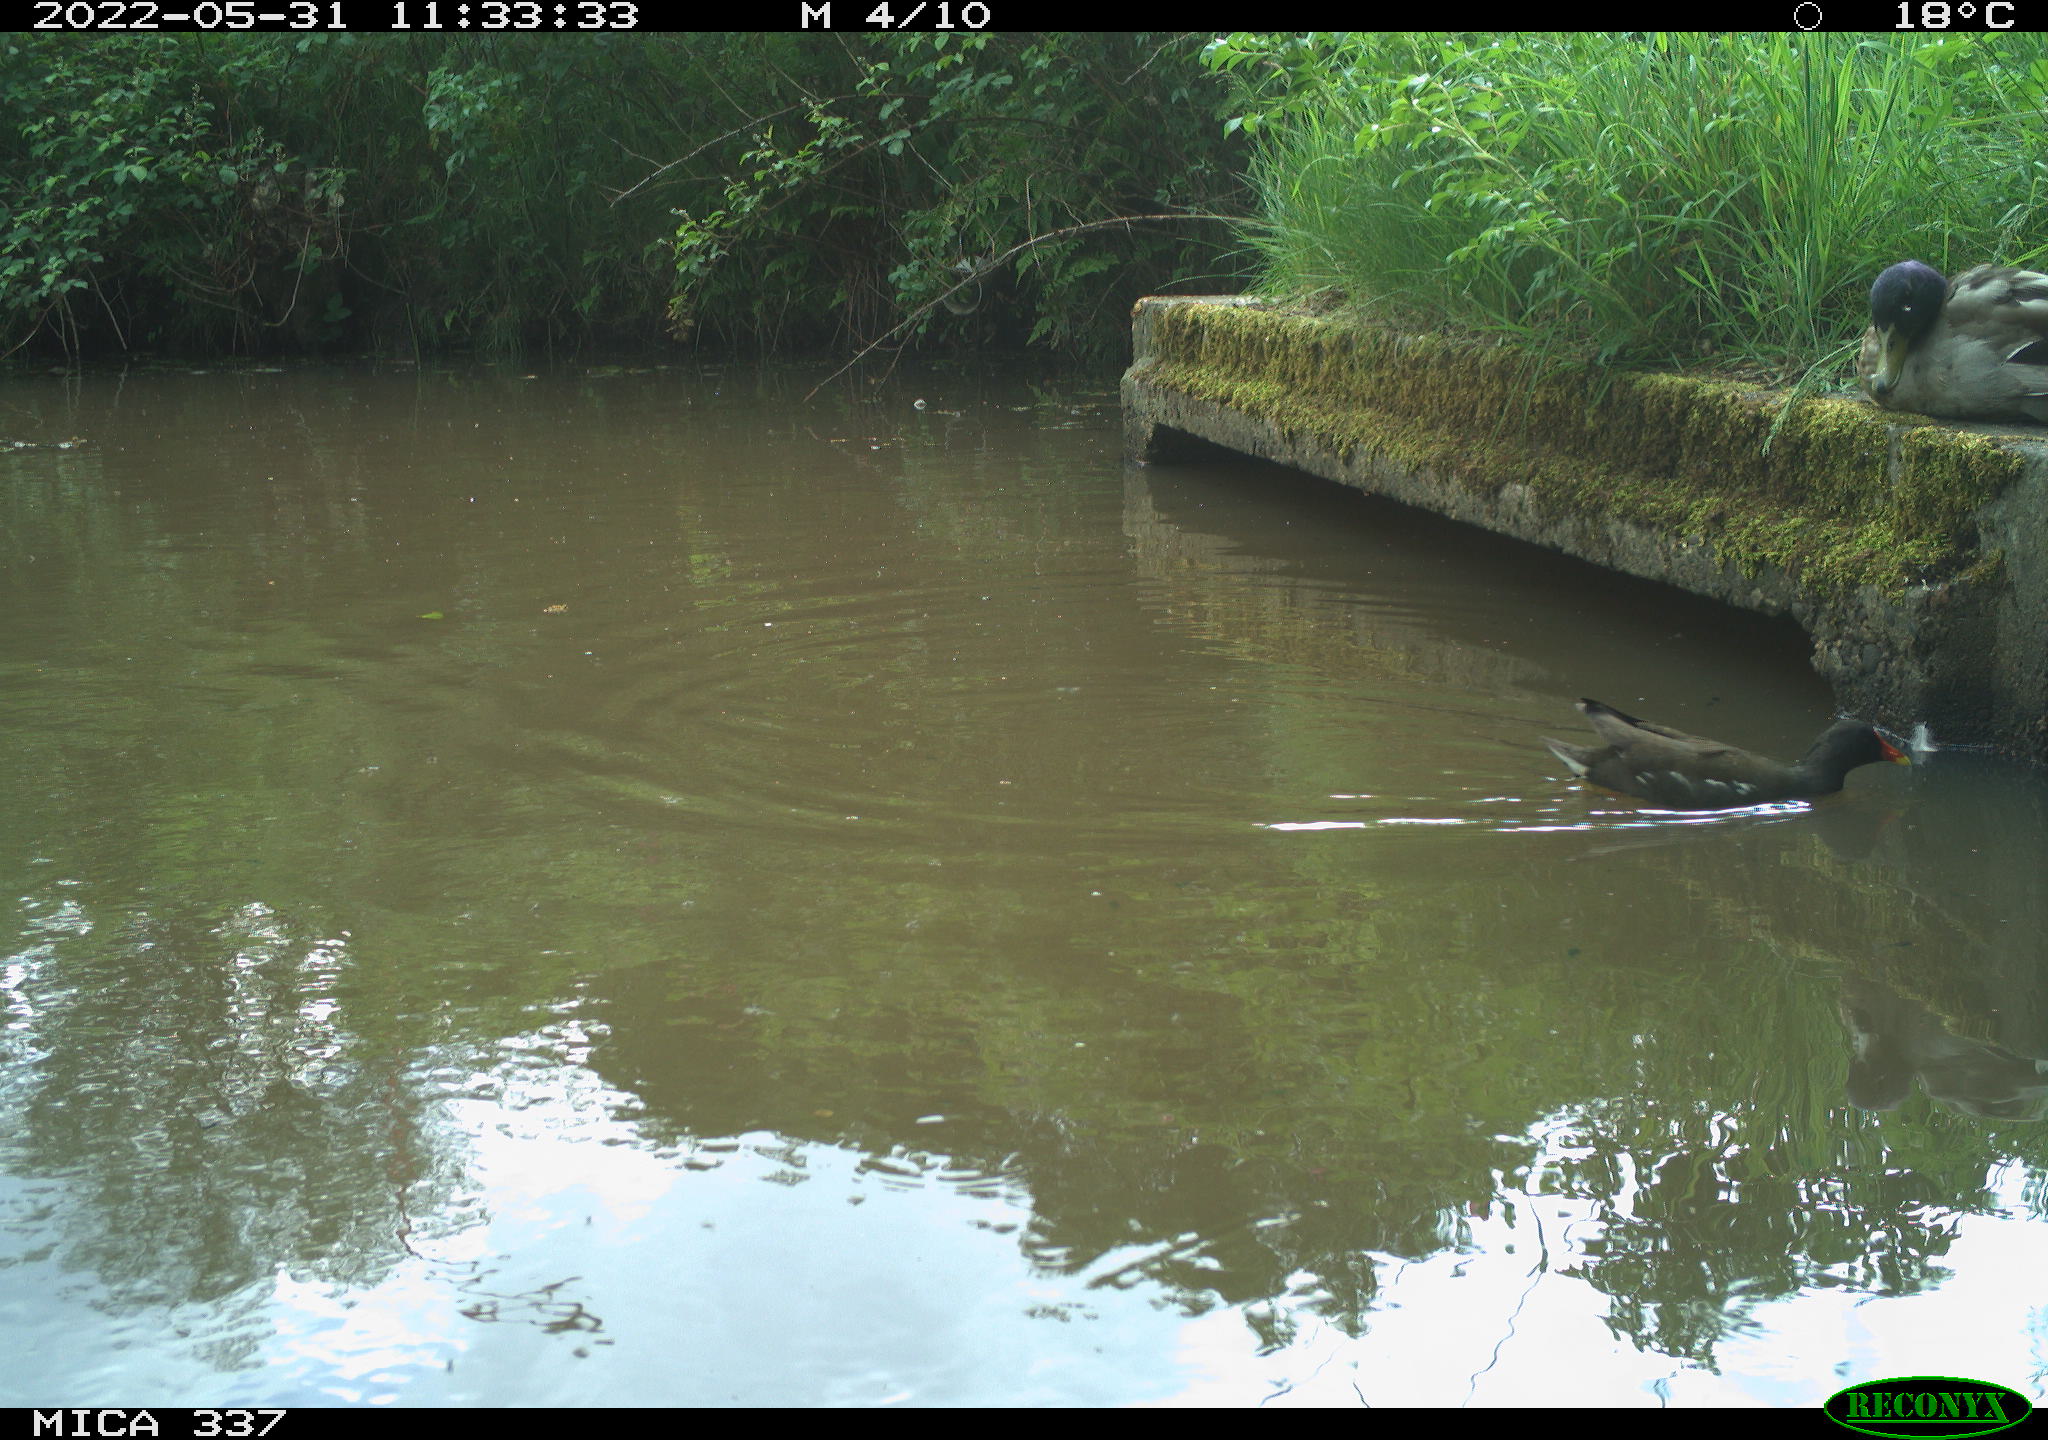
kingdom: Animalia
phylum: Chordata
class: Aves
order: Gruiformes
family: Rallidae
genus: Gallinula
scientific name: Gallinula chloropus
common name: Common moorhen
